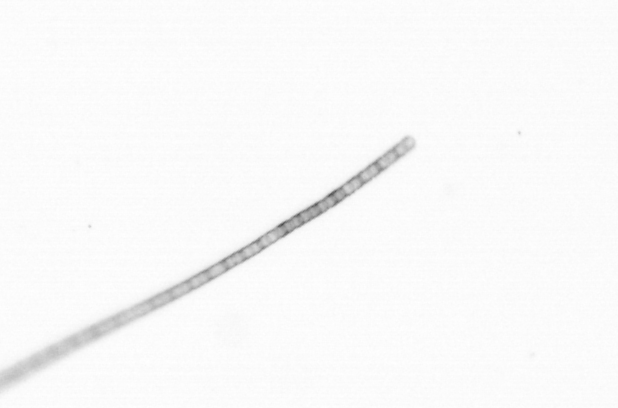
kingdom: Chromista
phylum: Ochrophyta
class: Bacillariophyceae
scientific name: Bacillariophyceae
